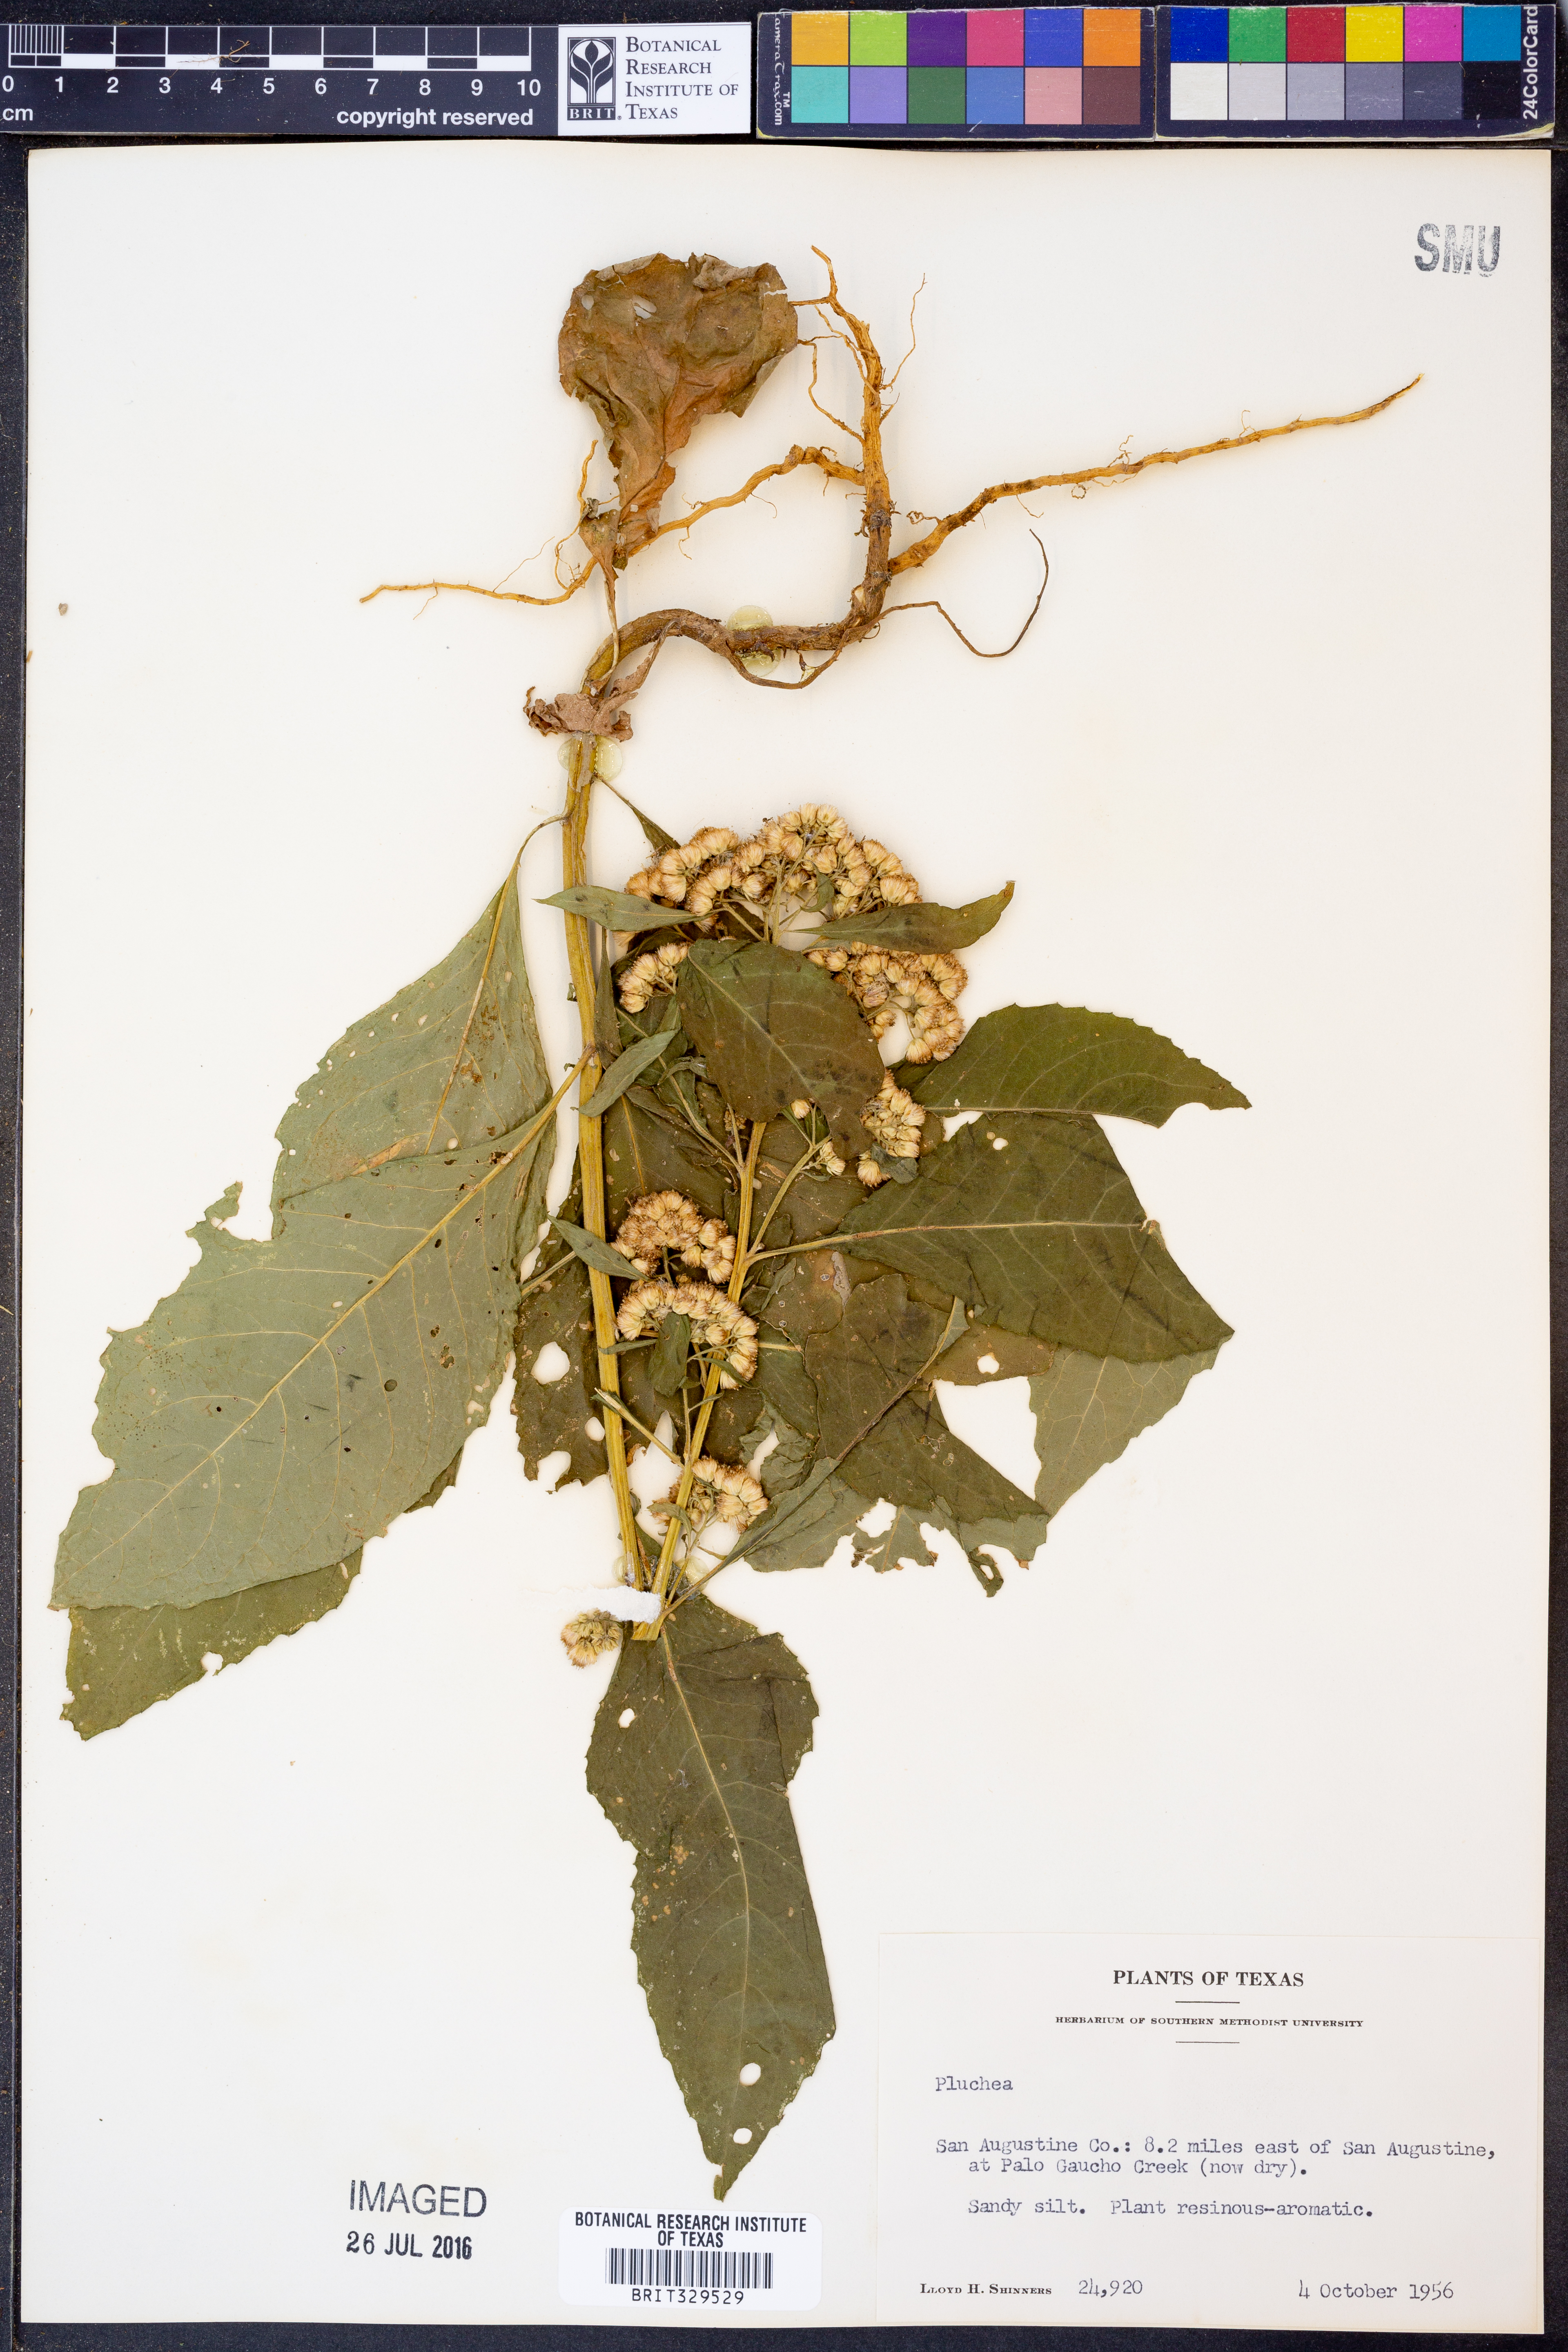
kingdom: Plantae
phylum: Tracheophyta
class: Magnoliopsida
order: Asterales
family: Asteraceae
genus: Pluchea
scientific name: Pluchea
